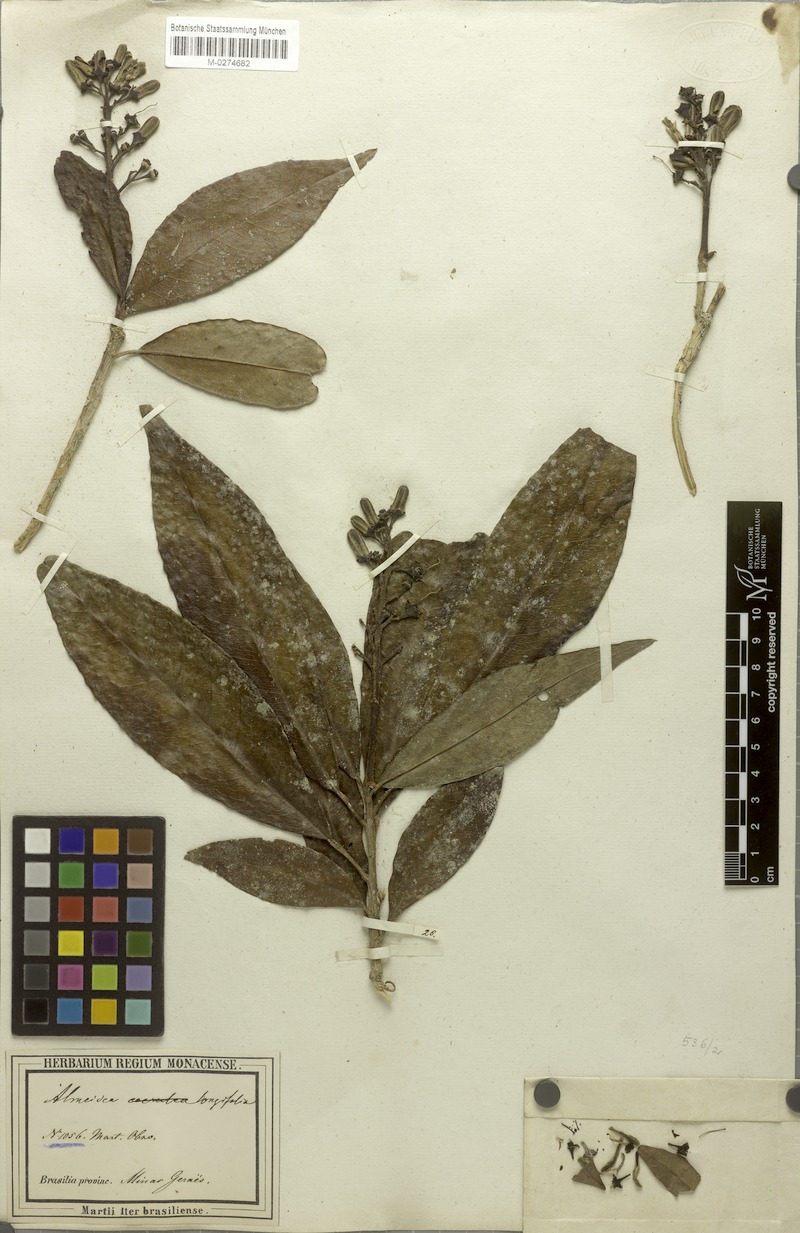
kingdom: Plantae
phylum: Tracheophyta
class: Magnoliopsida
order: Sapindales
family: Rutaceae
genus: Conchocarpus
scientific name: Conchocarpus ruber
